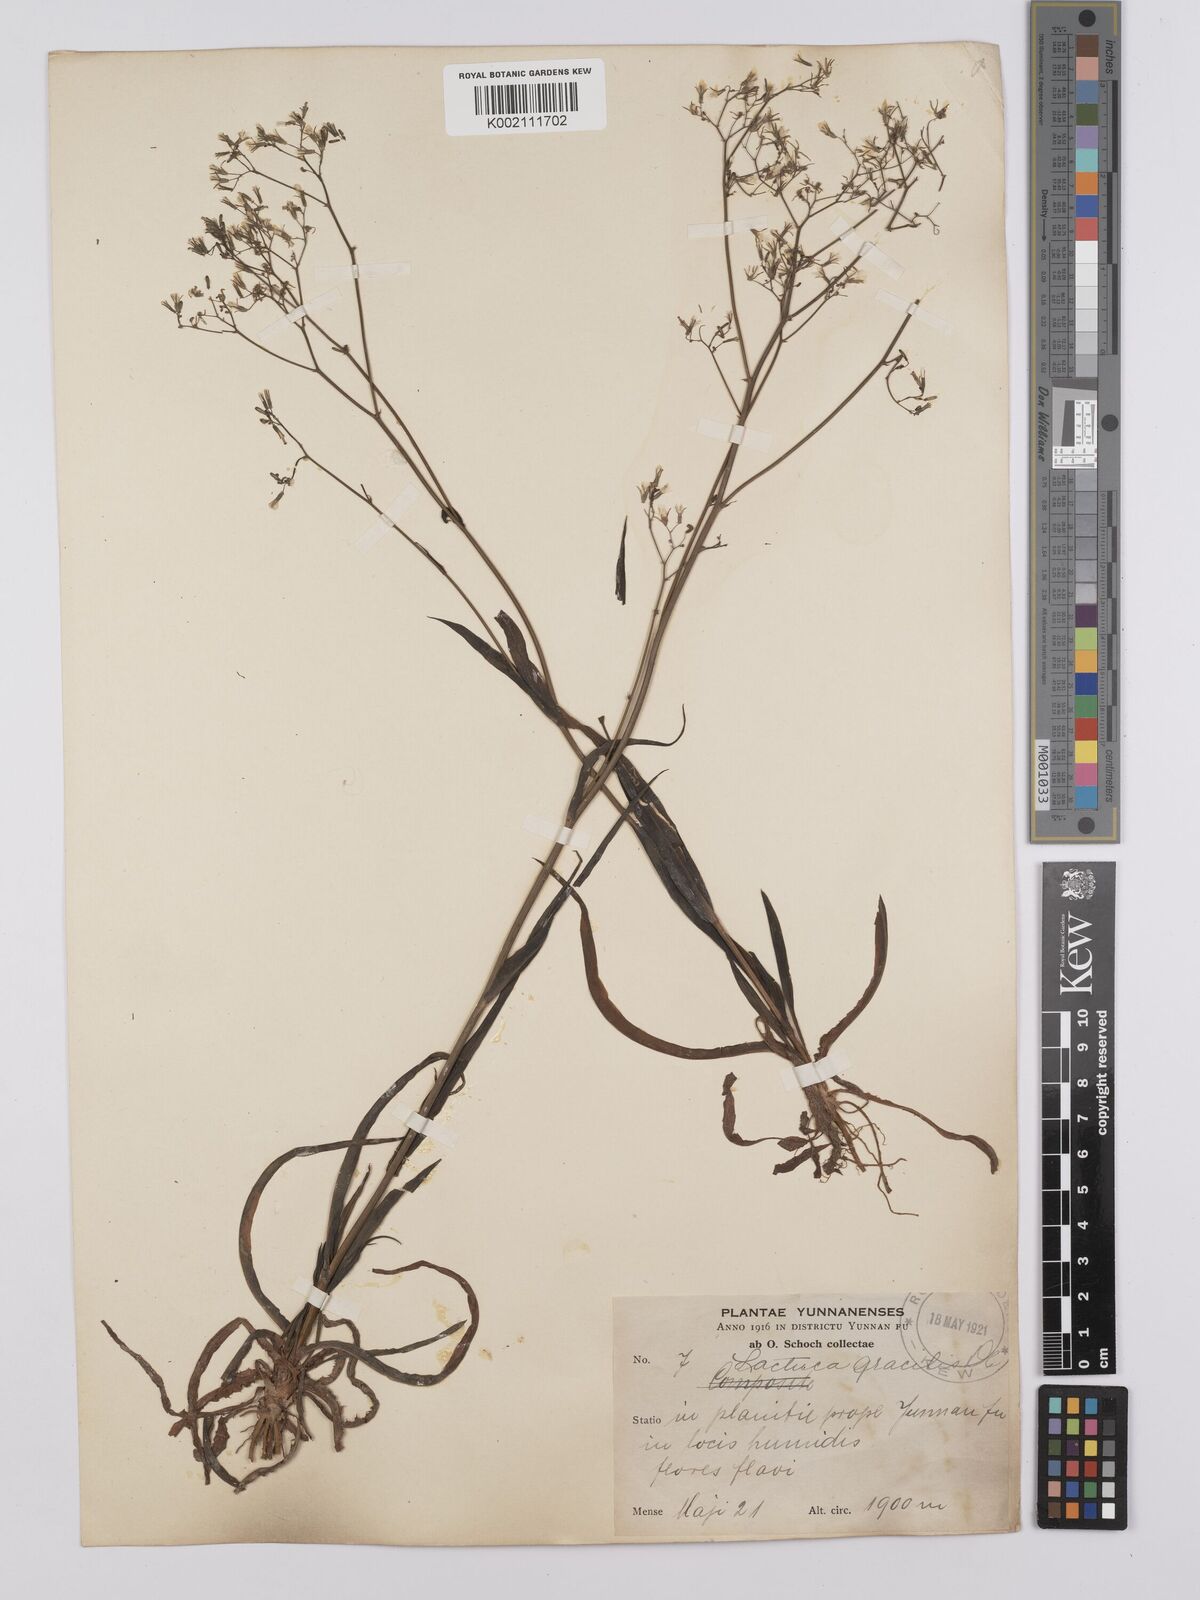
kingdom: Plantae
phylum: Tracheophyta
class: Magnoliopsida
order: Asterales
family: Asteraceae
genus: Ixeridium
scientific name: Ixeridium
